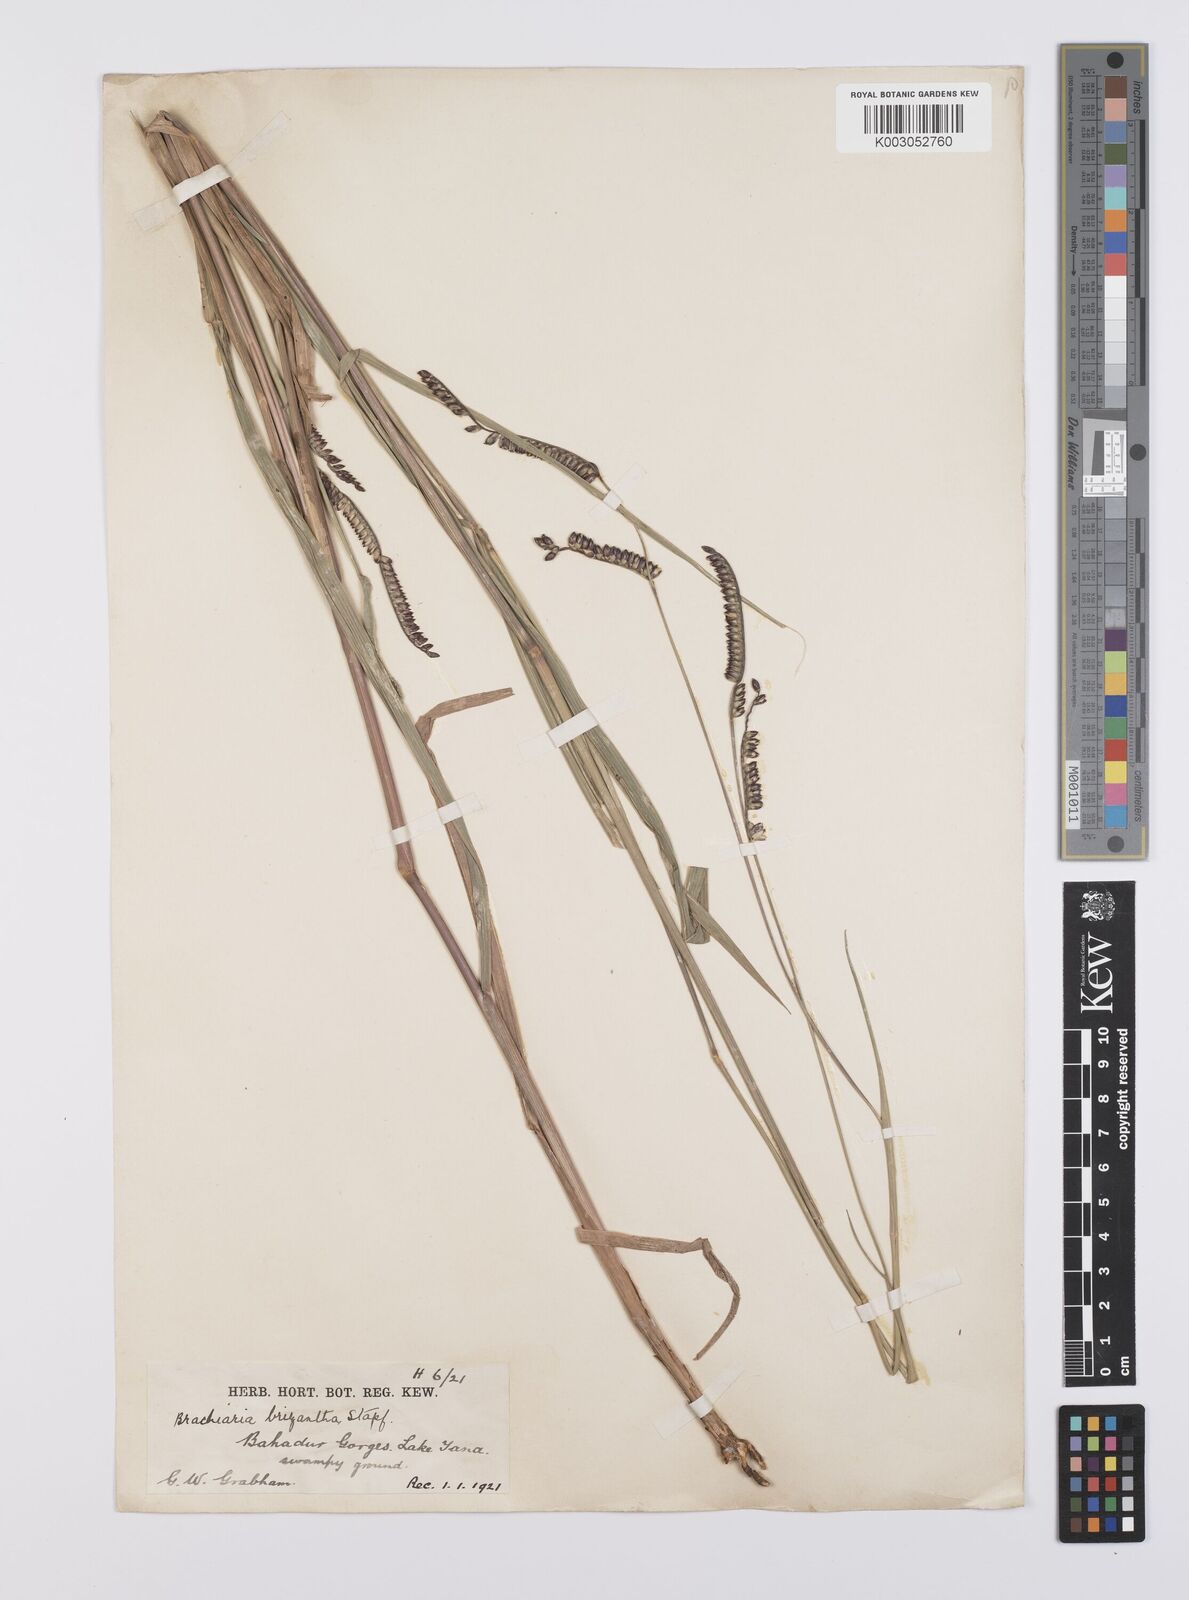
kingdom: Plantae
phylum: Tracheophyta
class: Liliopsida
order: Poales
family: Poaceae
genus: Urochloa
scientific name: Urochloa brizantha
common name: Palisade signalgrass
